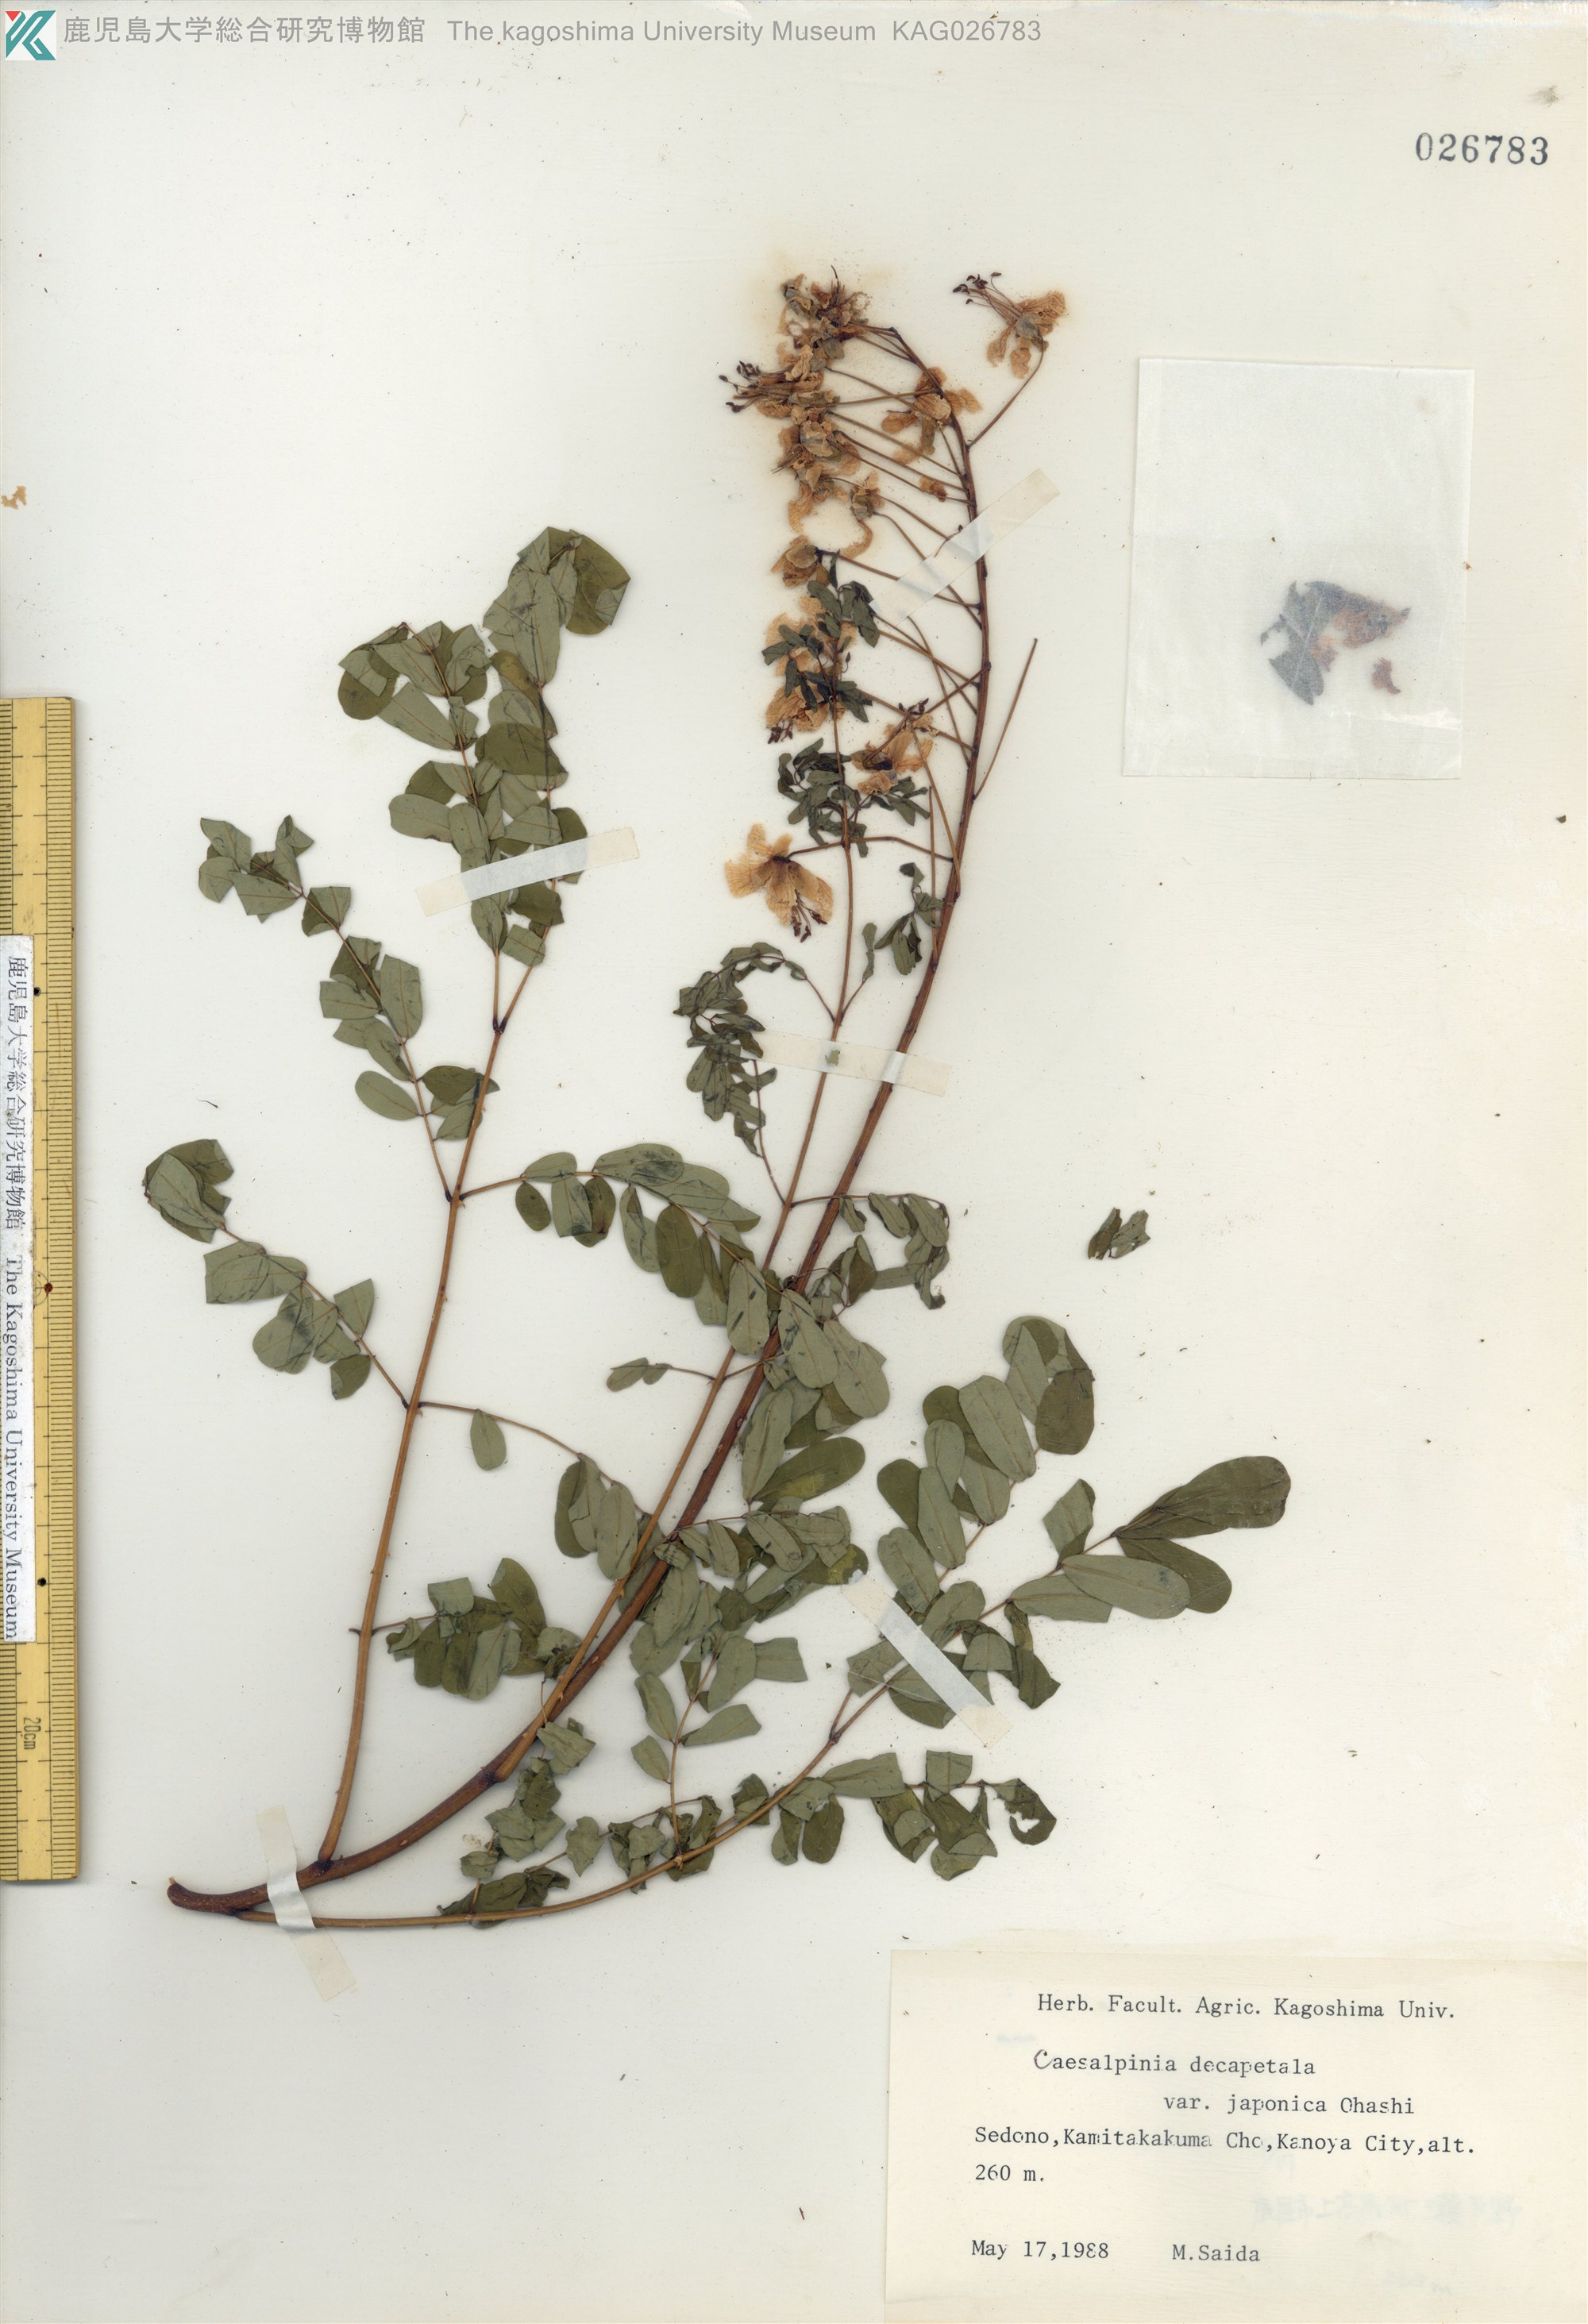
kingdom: Plantae
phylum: Tracheophyta
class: Magnoliopsida
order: Fabales
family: Fabaceae
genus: Biancaea
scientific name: Biancaea decapetala
